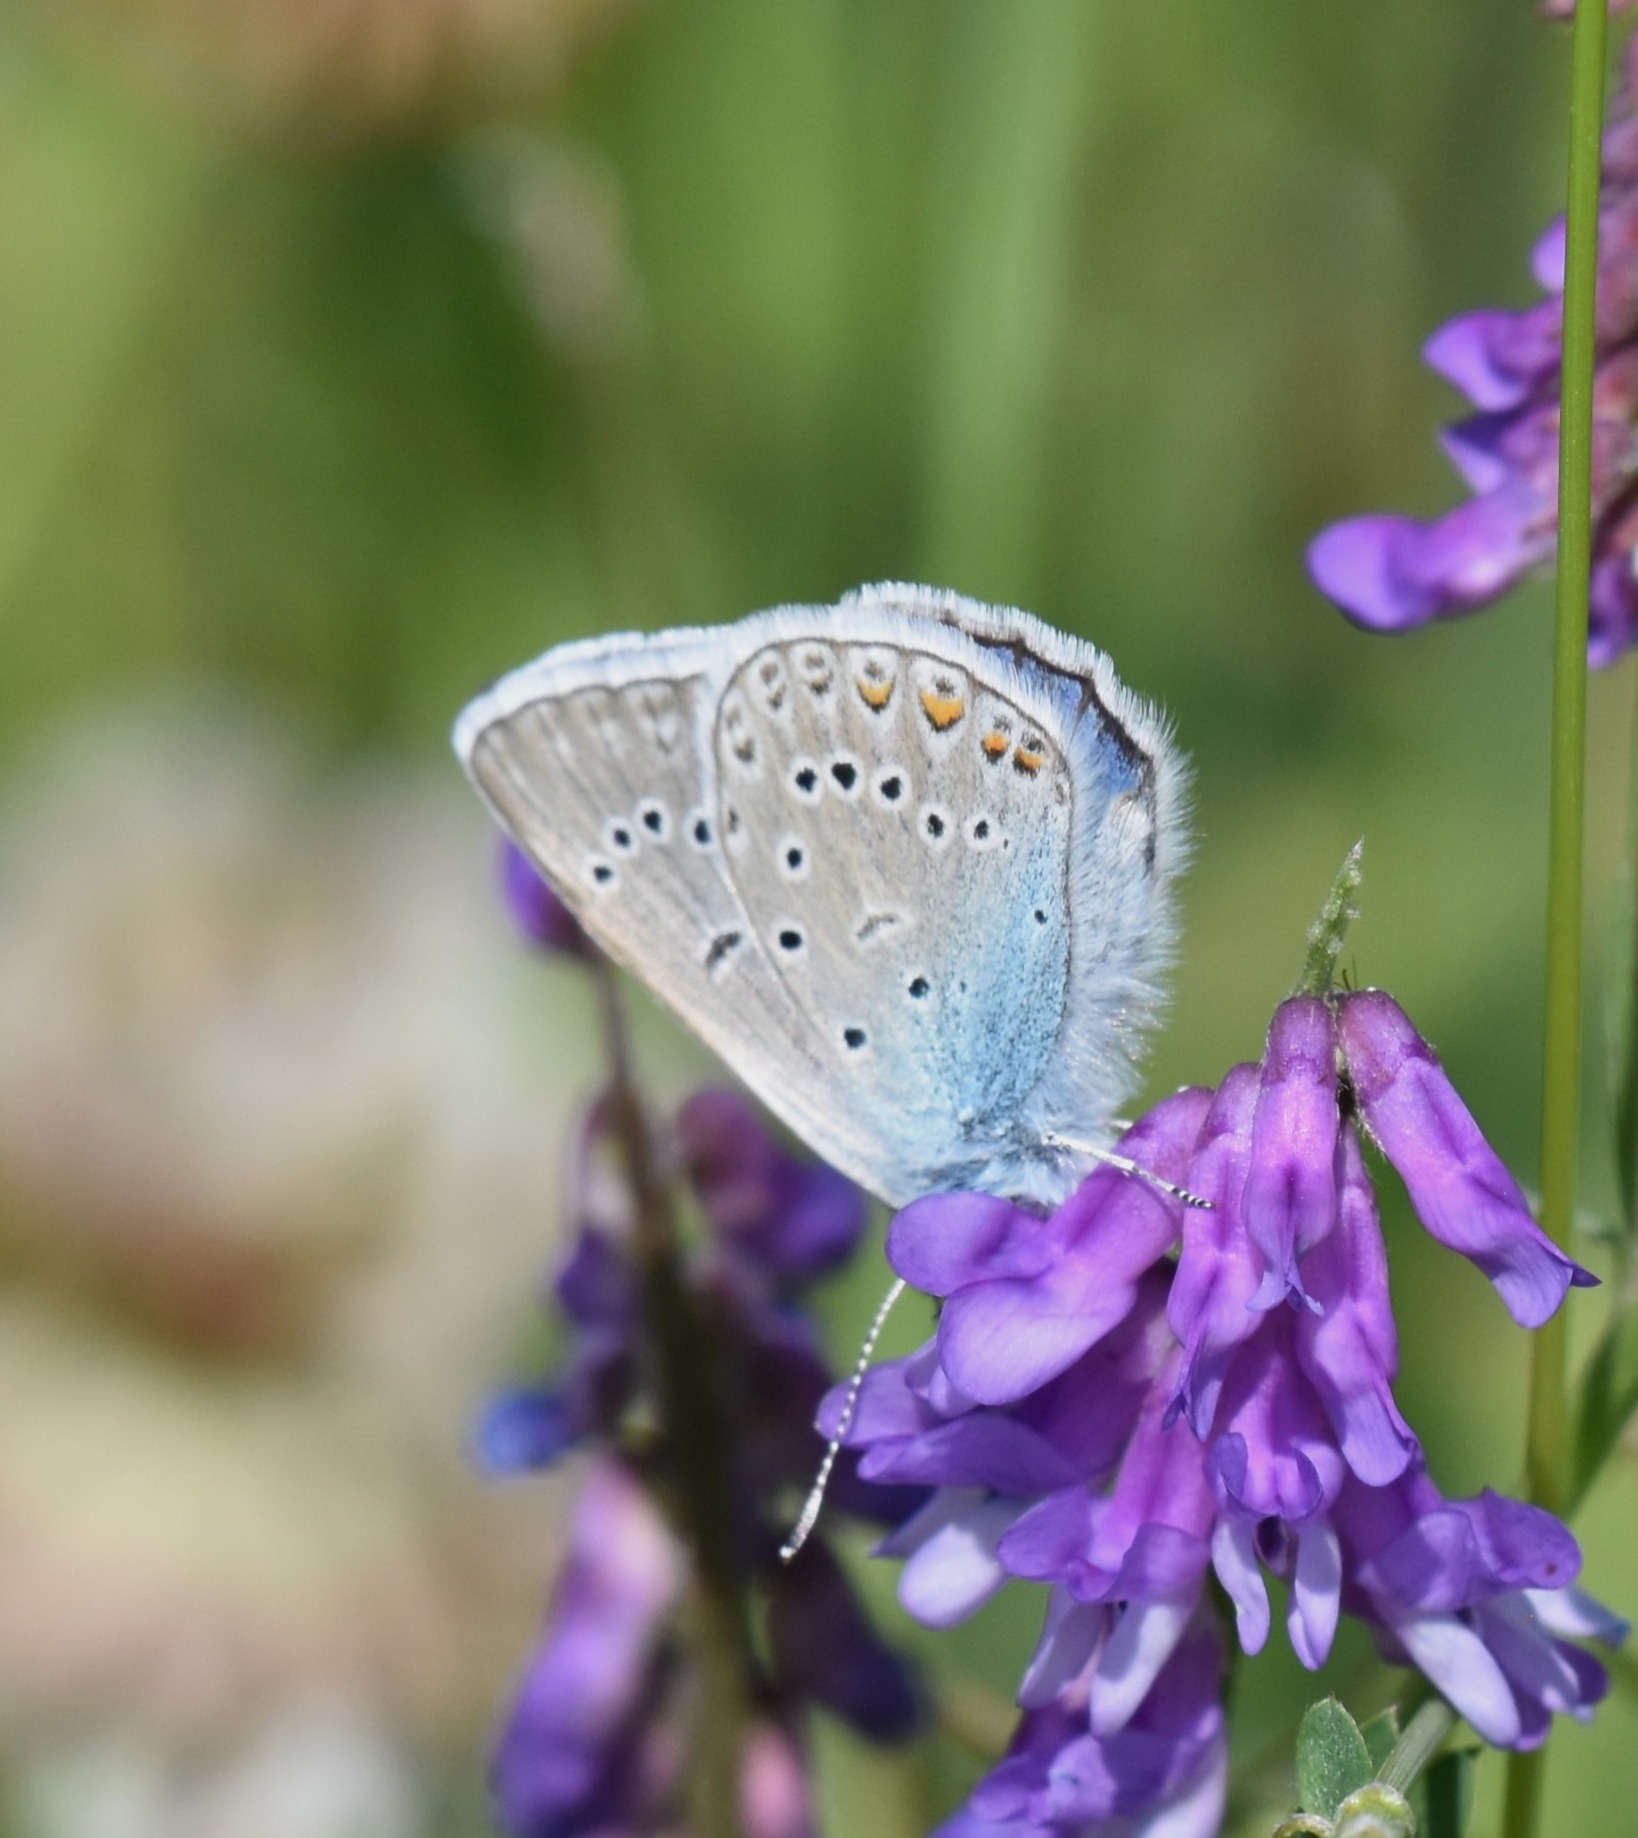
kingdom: Animalia
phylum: Arthropoda
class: Insecta
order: Lepidoptera
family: Lycaenidae
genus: Plebejus
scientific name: Plebejus amanda
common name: Isblåfugl
